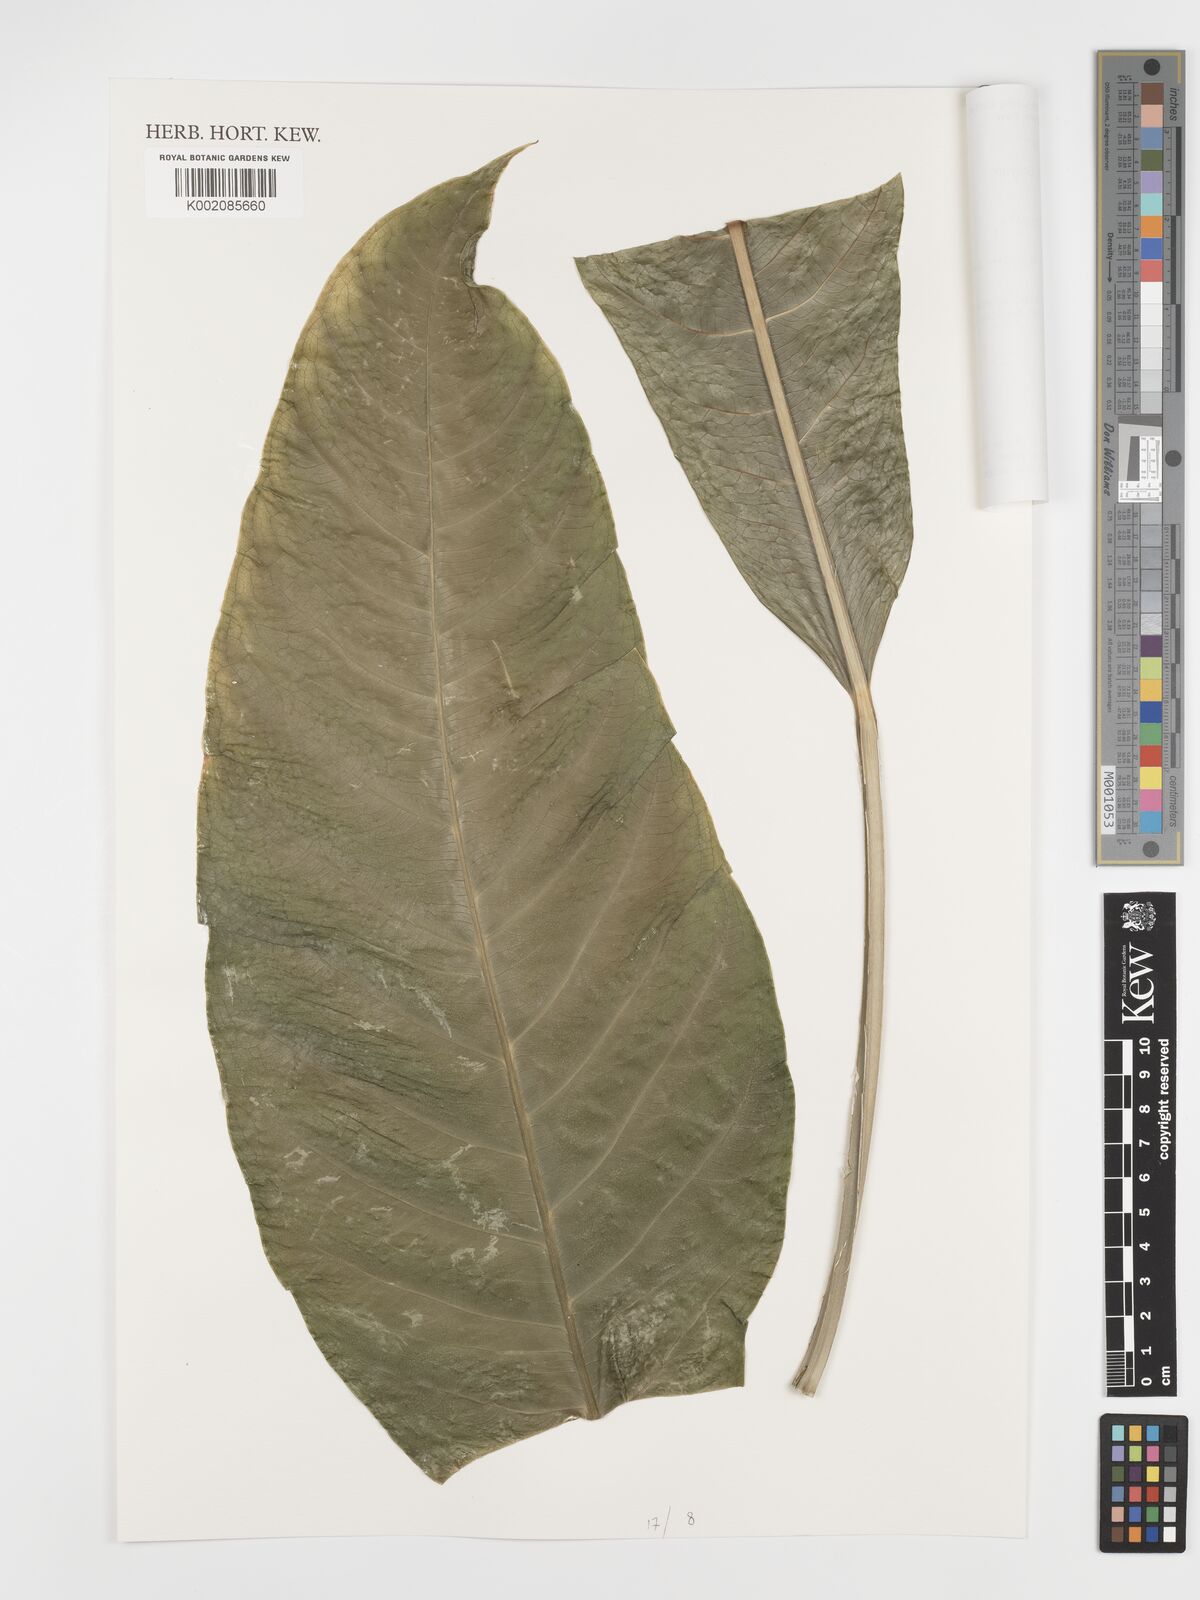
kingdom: Plantae
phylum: Tracheophyta
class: Liliopsida
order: Alismatales
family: Araceae
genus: Anthurium
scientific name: Anthurium bradeanum
